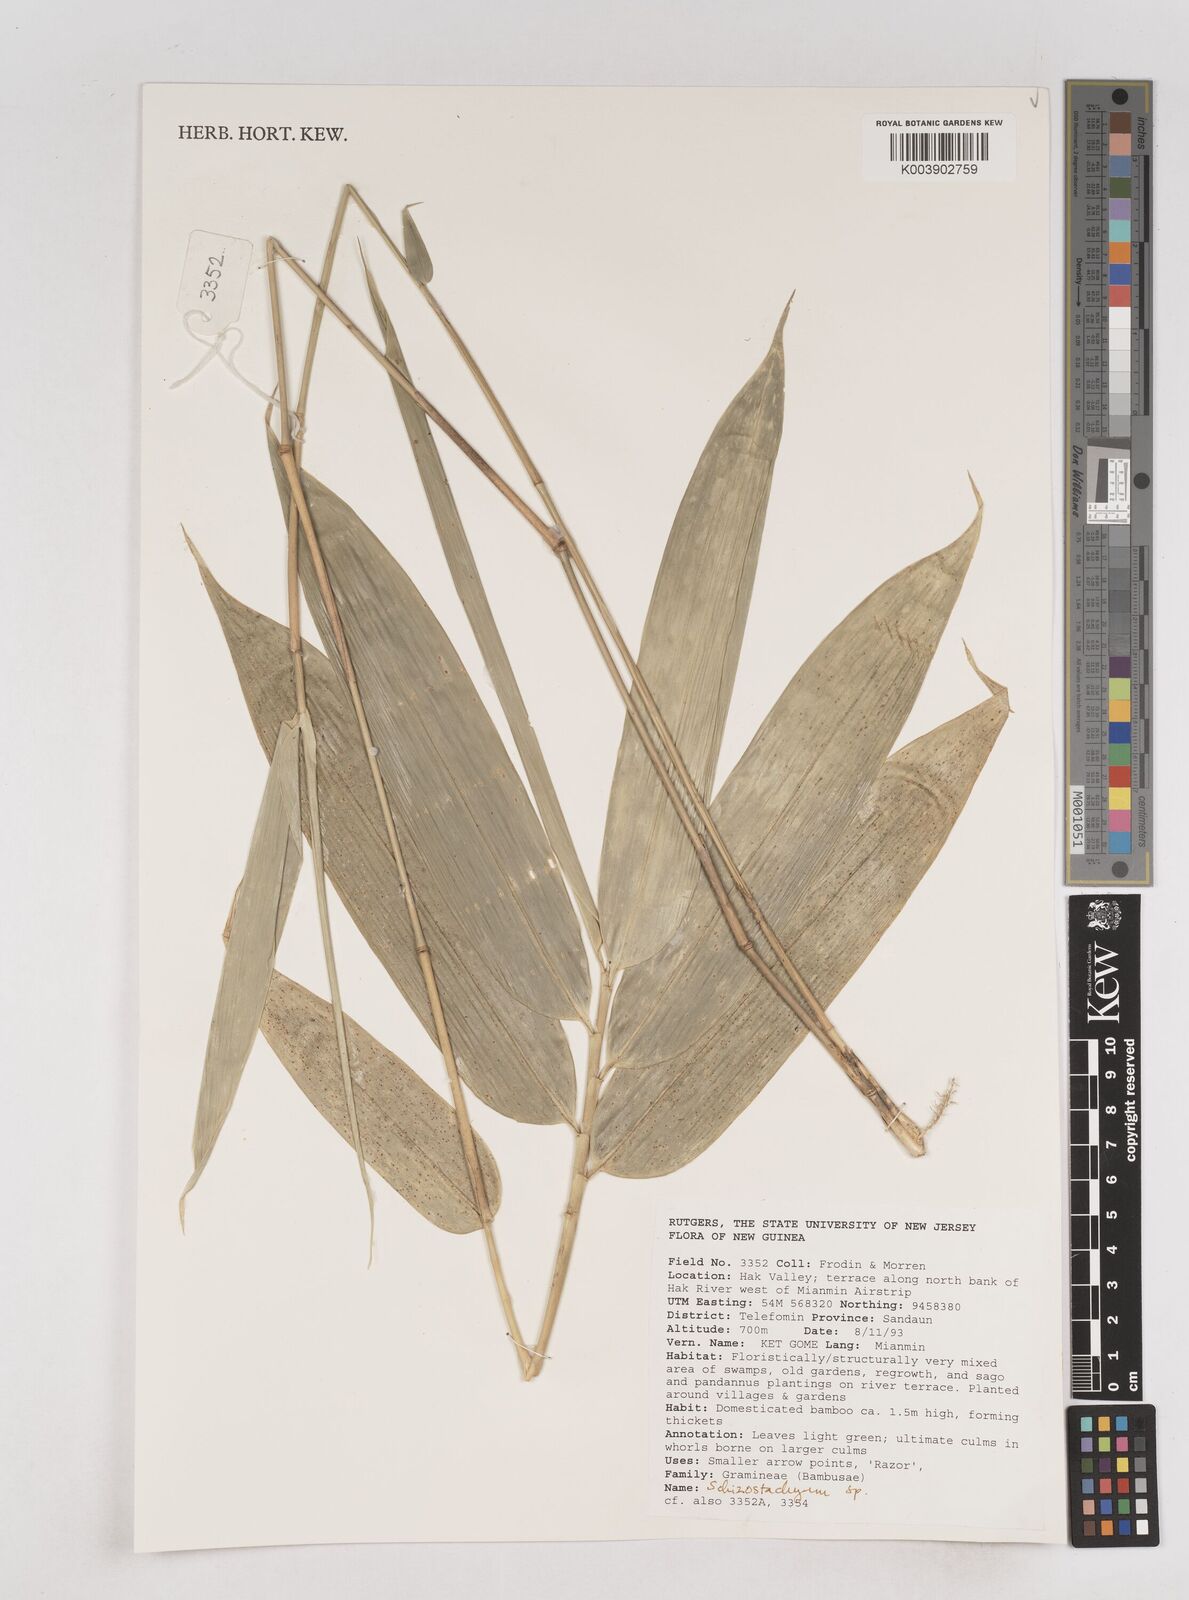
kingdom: Plantae
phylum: Tracheophyta
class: Liliopsida
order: Poales
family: Poaceae
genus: Schizostachyum
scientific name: Schizostachyum
